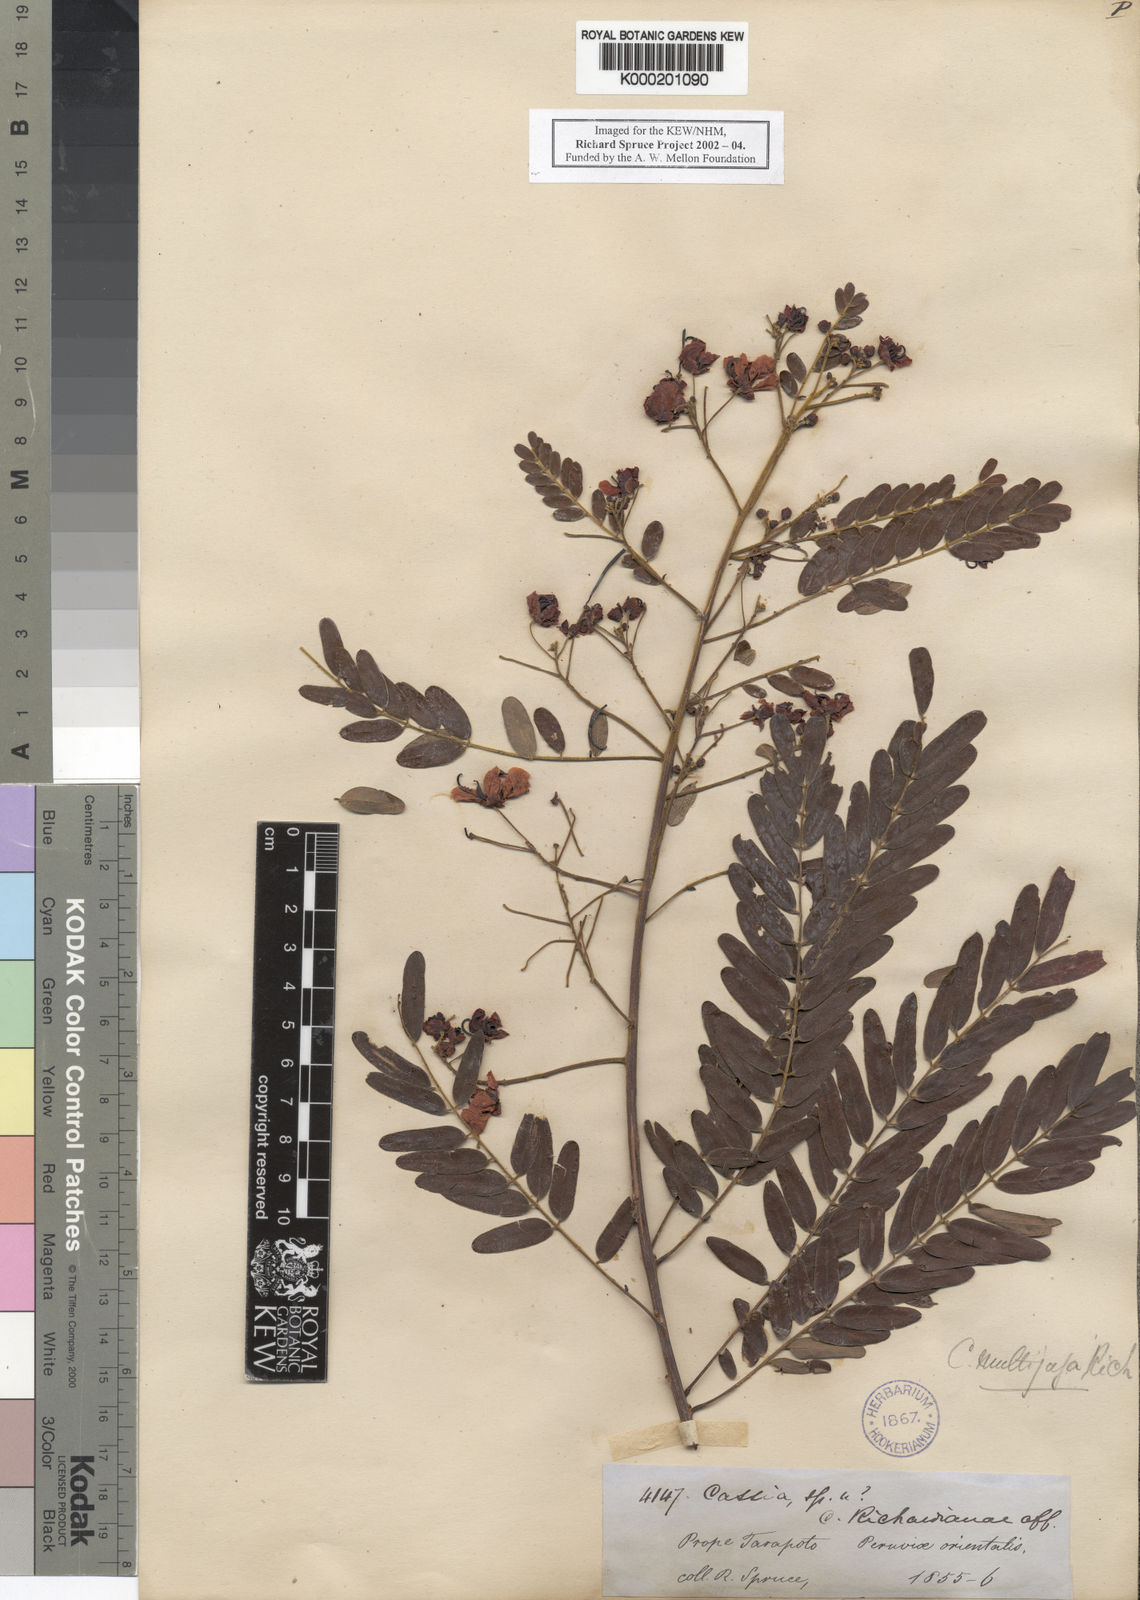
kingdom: Plantae
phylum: Tracheophyta
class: Magnoliopsida
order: Fabales
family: Fabaceae
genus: Senna
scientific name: Senna multijuga
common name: False sicklepod
